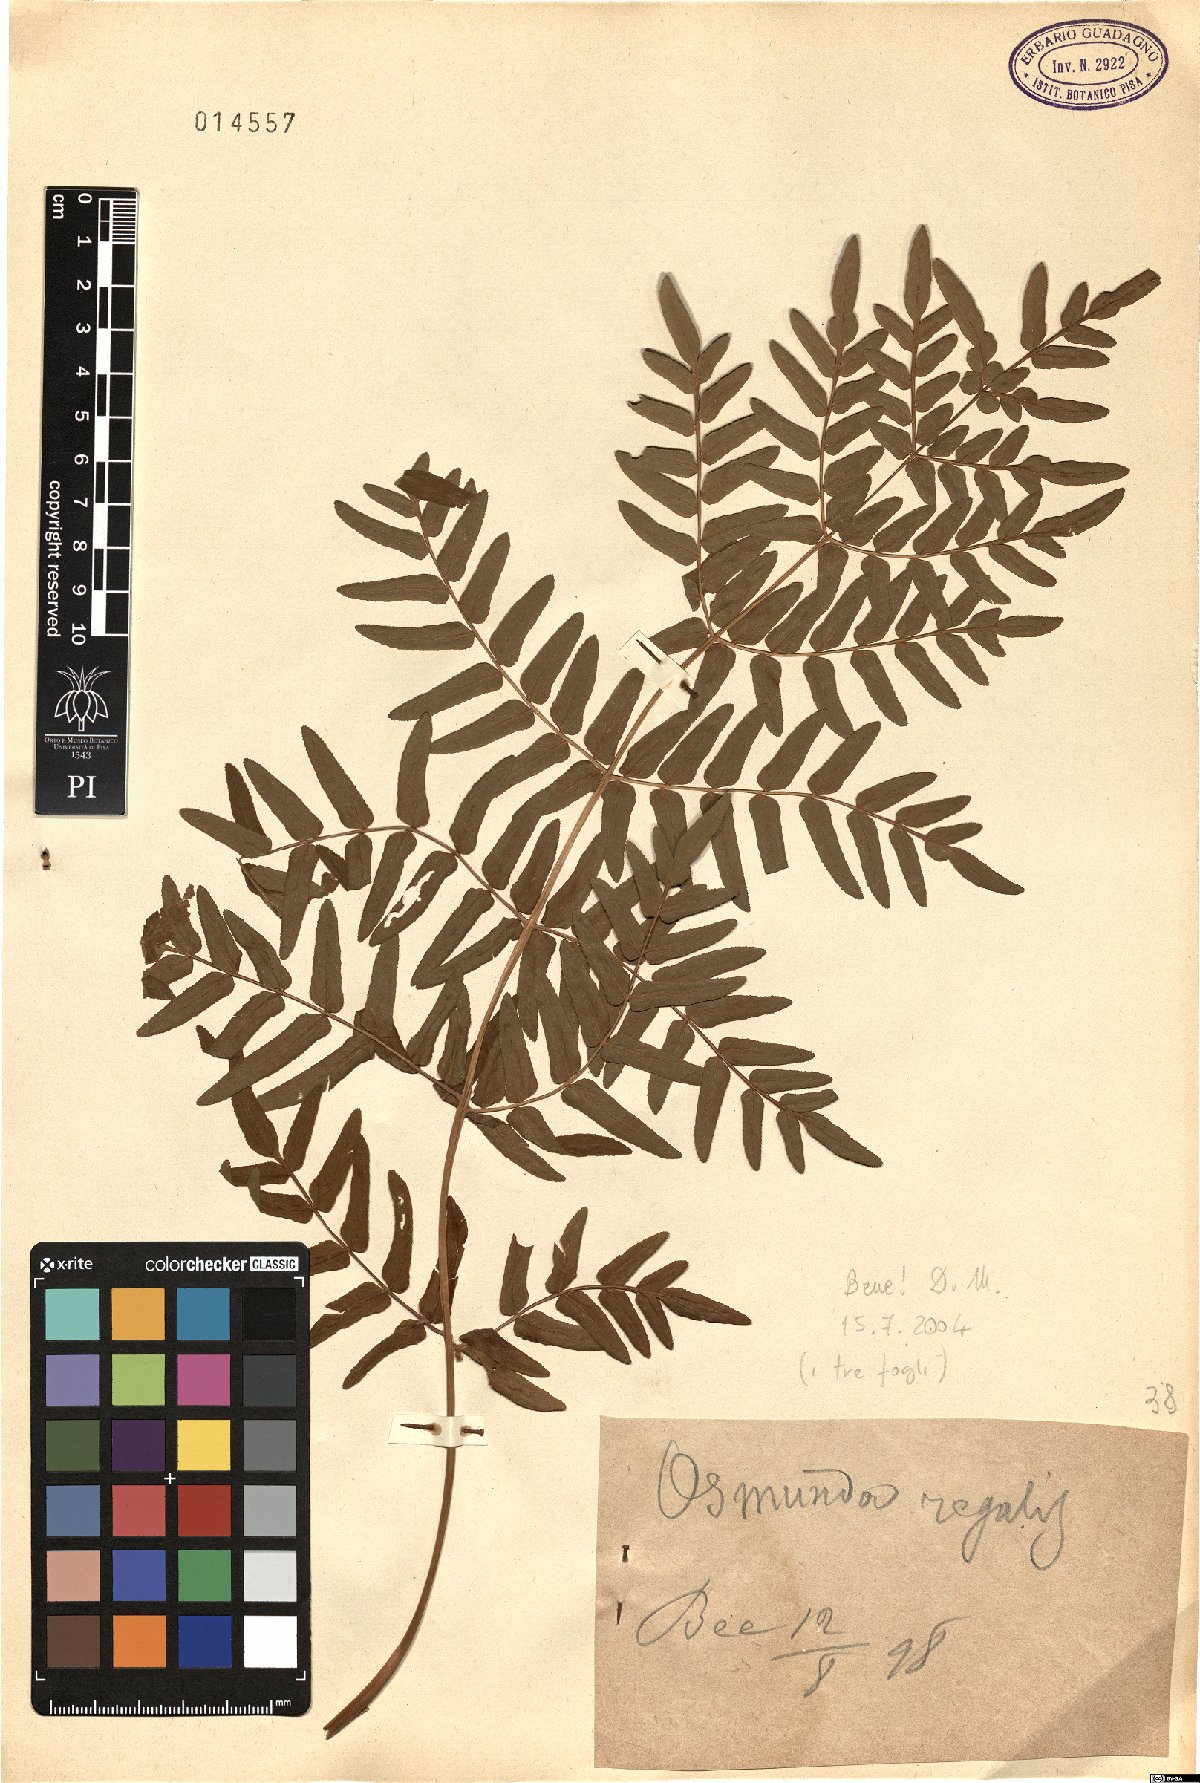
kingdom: Plantae
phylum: Tracheophyta
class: Polypodiopsida
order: Osmundales
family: Osmundaceae
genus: Osmunda
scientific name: Osmunda regalis
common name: Royal fern
